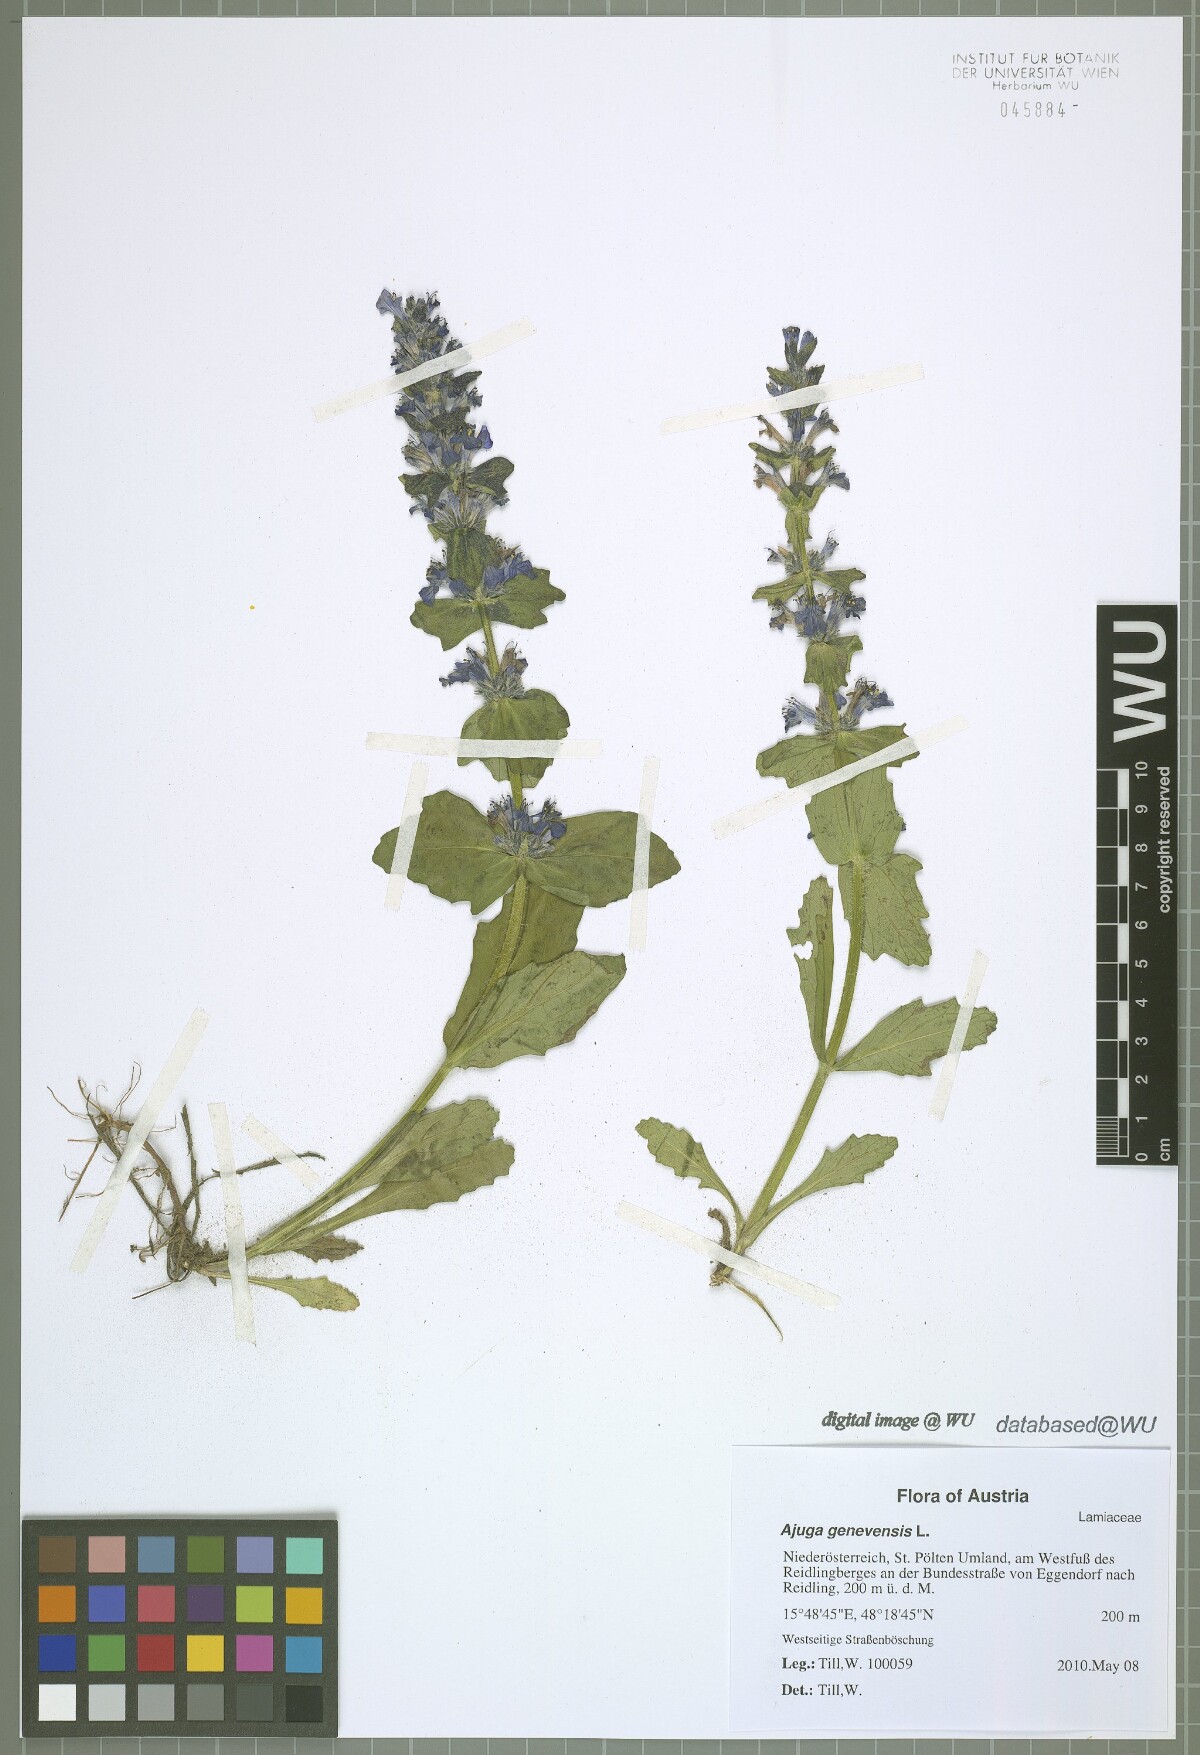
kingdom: Plantae
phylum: Tracheophyta
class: Magnoliopsida
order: Lamiales
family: Lamiaceae
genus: Ajuga
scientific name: Ajuga genevensis
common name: Blue bugle
